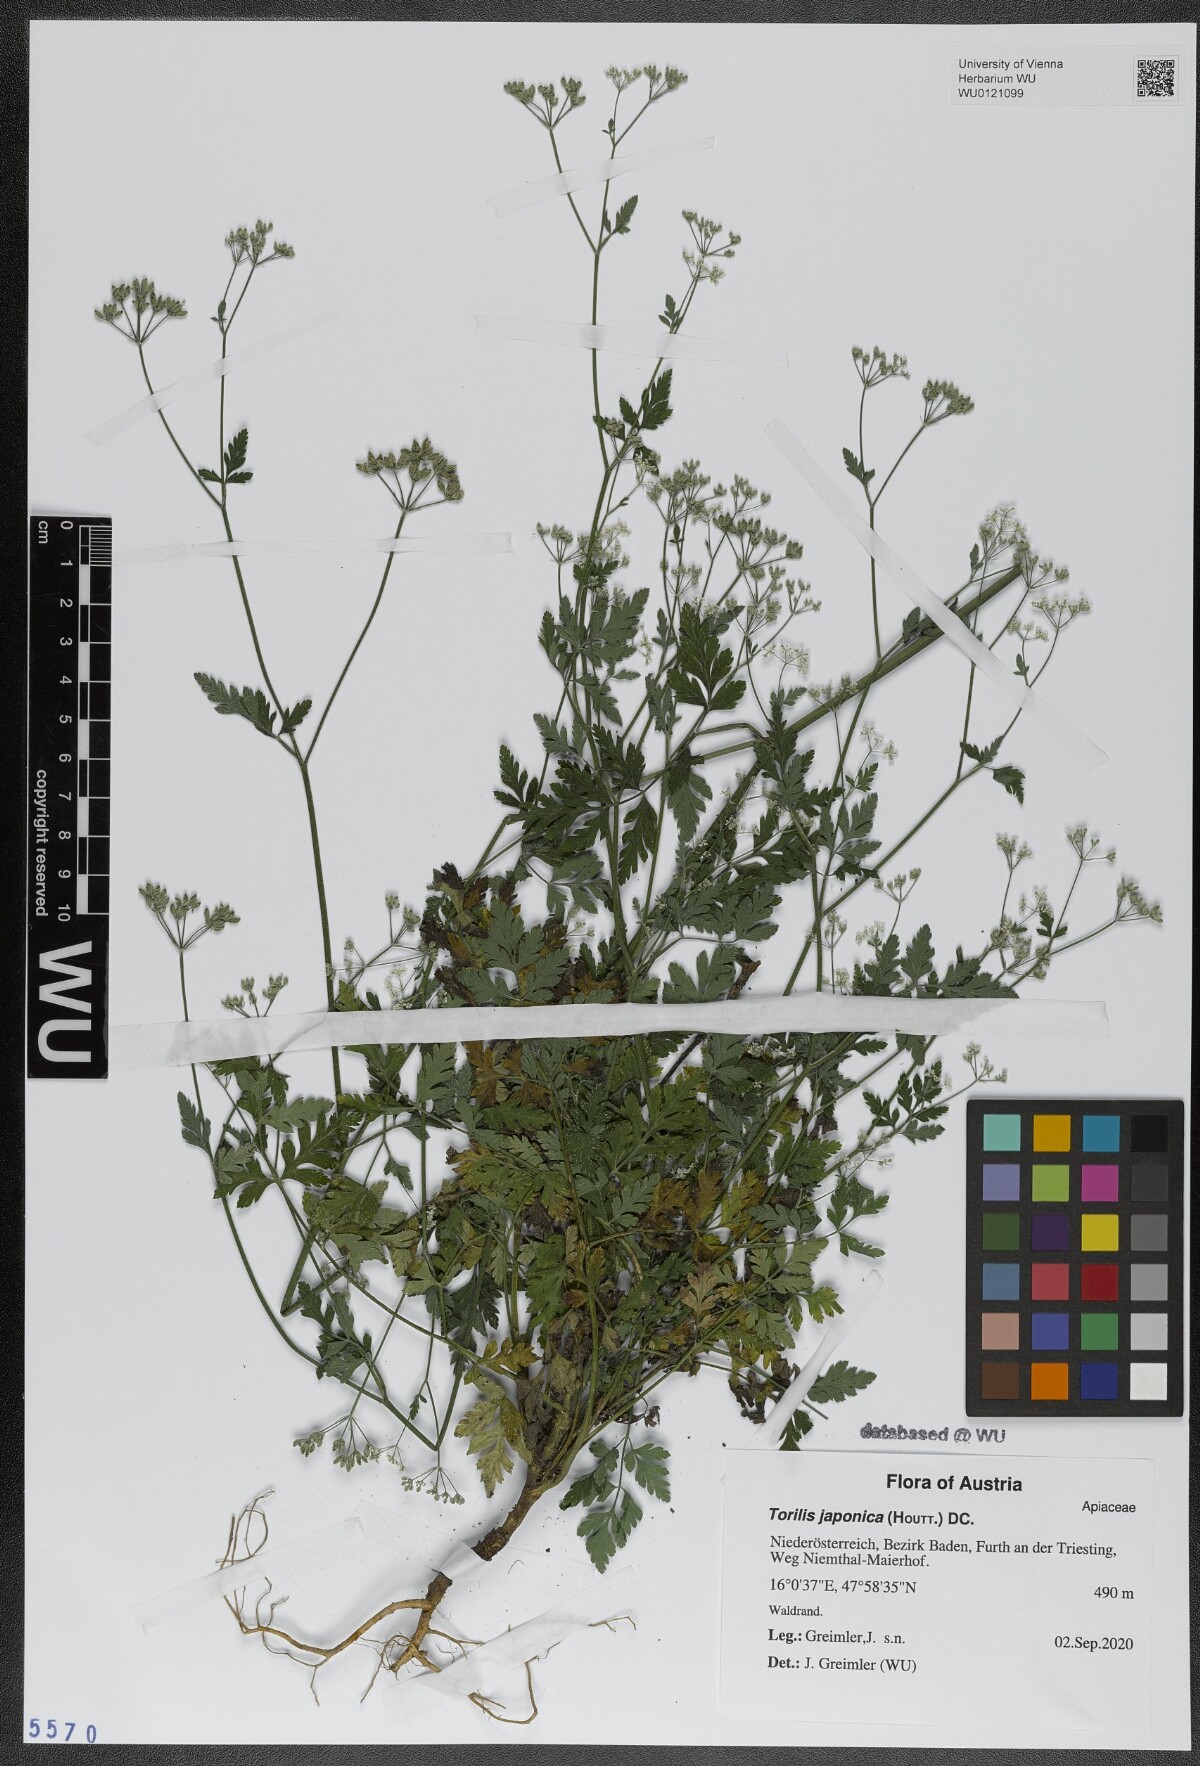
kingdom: Plantae
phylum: Tracheophyta
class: Magnoliopsida
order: Apiales
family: Apiaceae
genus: Torilis
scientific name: Torilis japonica
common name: Upright hedge-parsley
